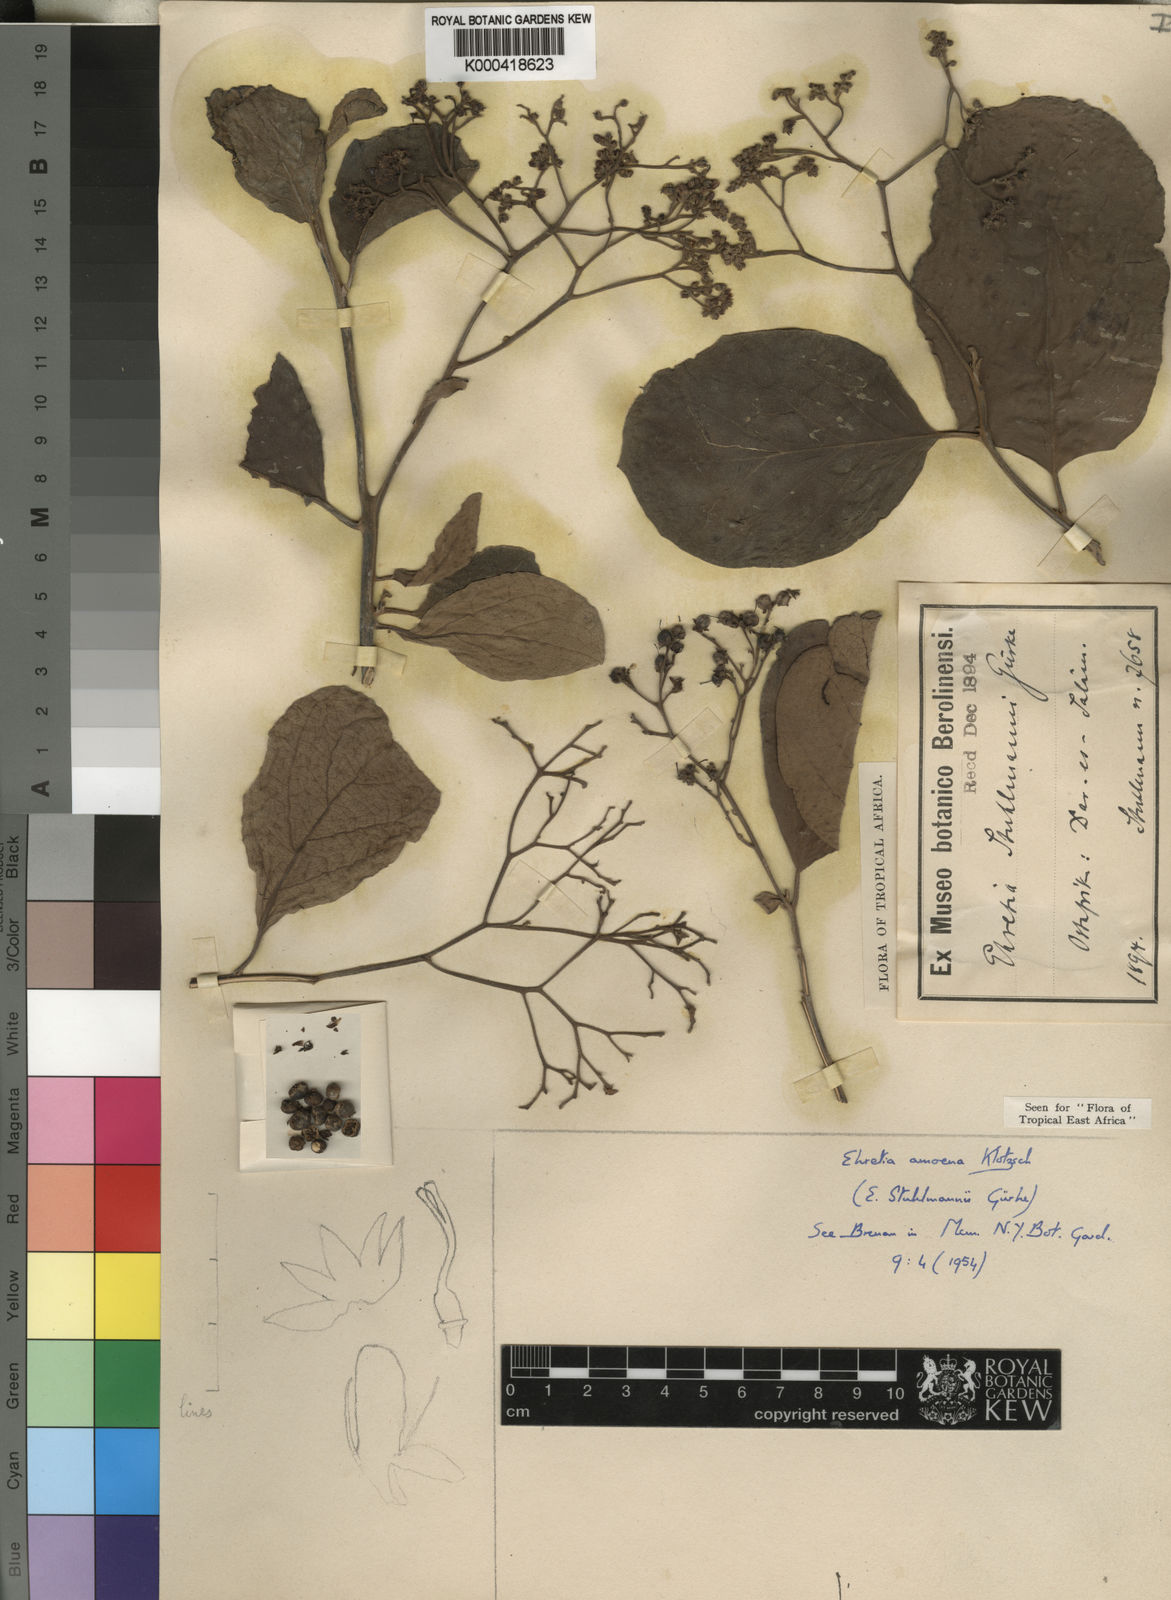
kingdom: Plantae
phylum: Tracheophyta
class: Magnoliopsida
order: Boraginales
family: Ehretiaceae
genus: Ehretia
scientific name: Ehretia amoena
